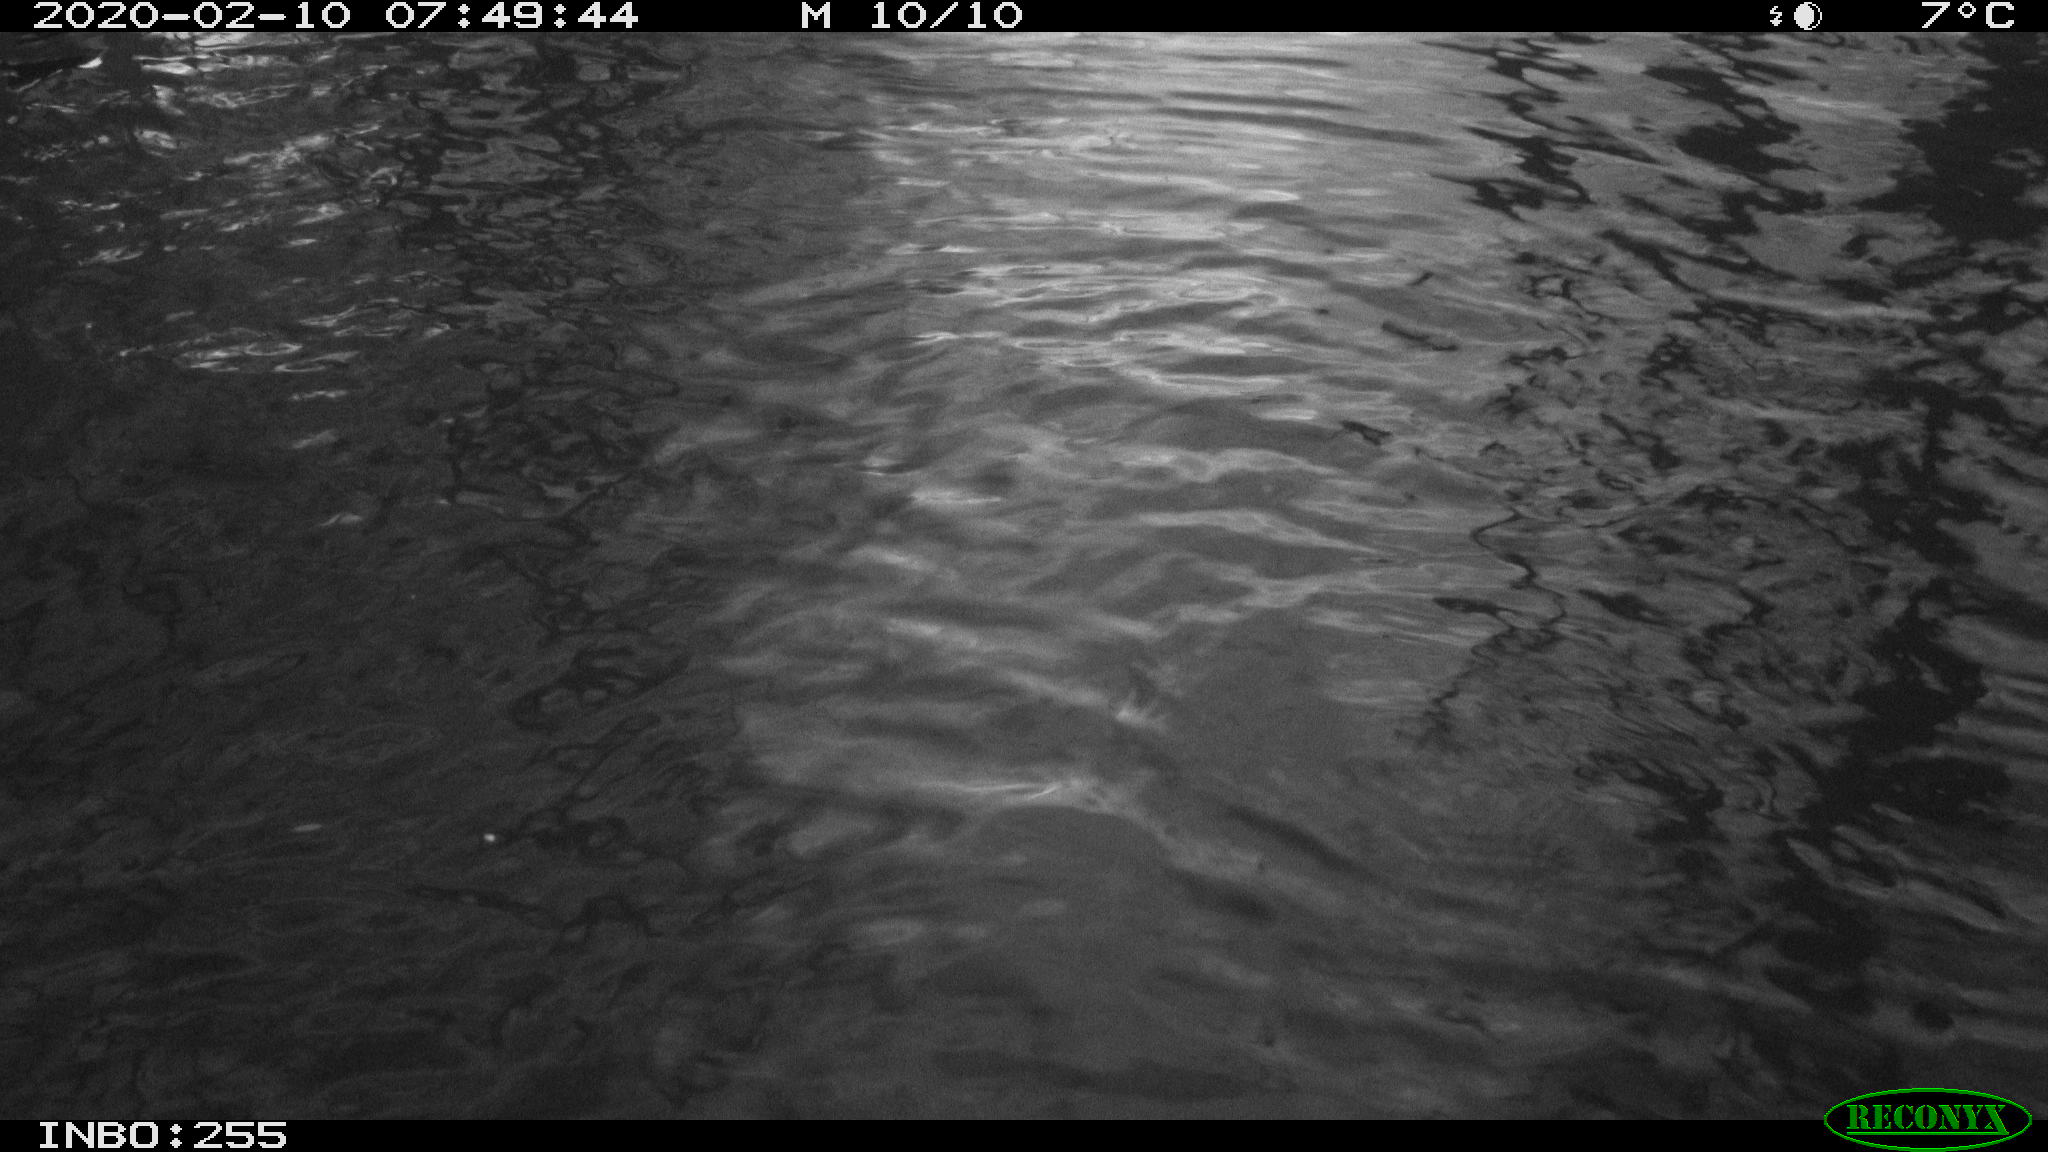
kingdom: Animalia
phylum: Chordata
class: Aves
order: Gruiformes
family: Rallidae
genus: Fulica
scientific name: Fulica atra
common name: Eurasian coot
